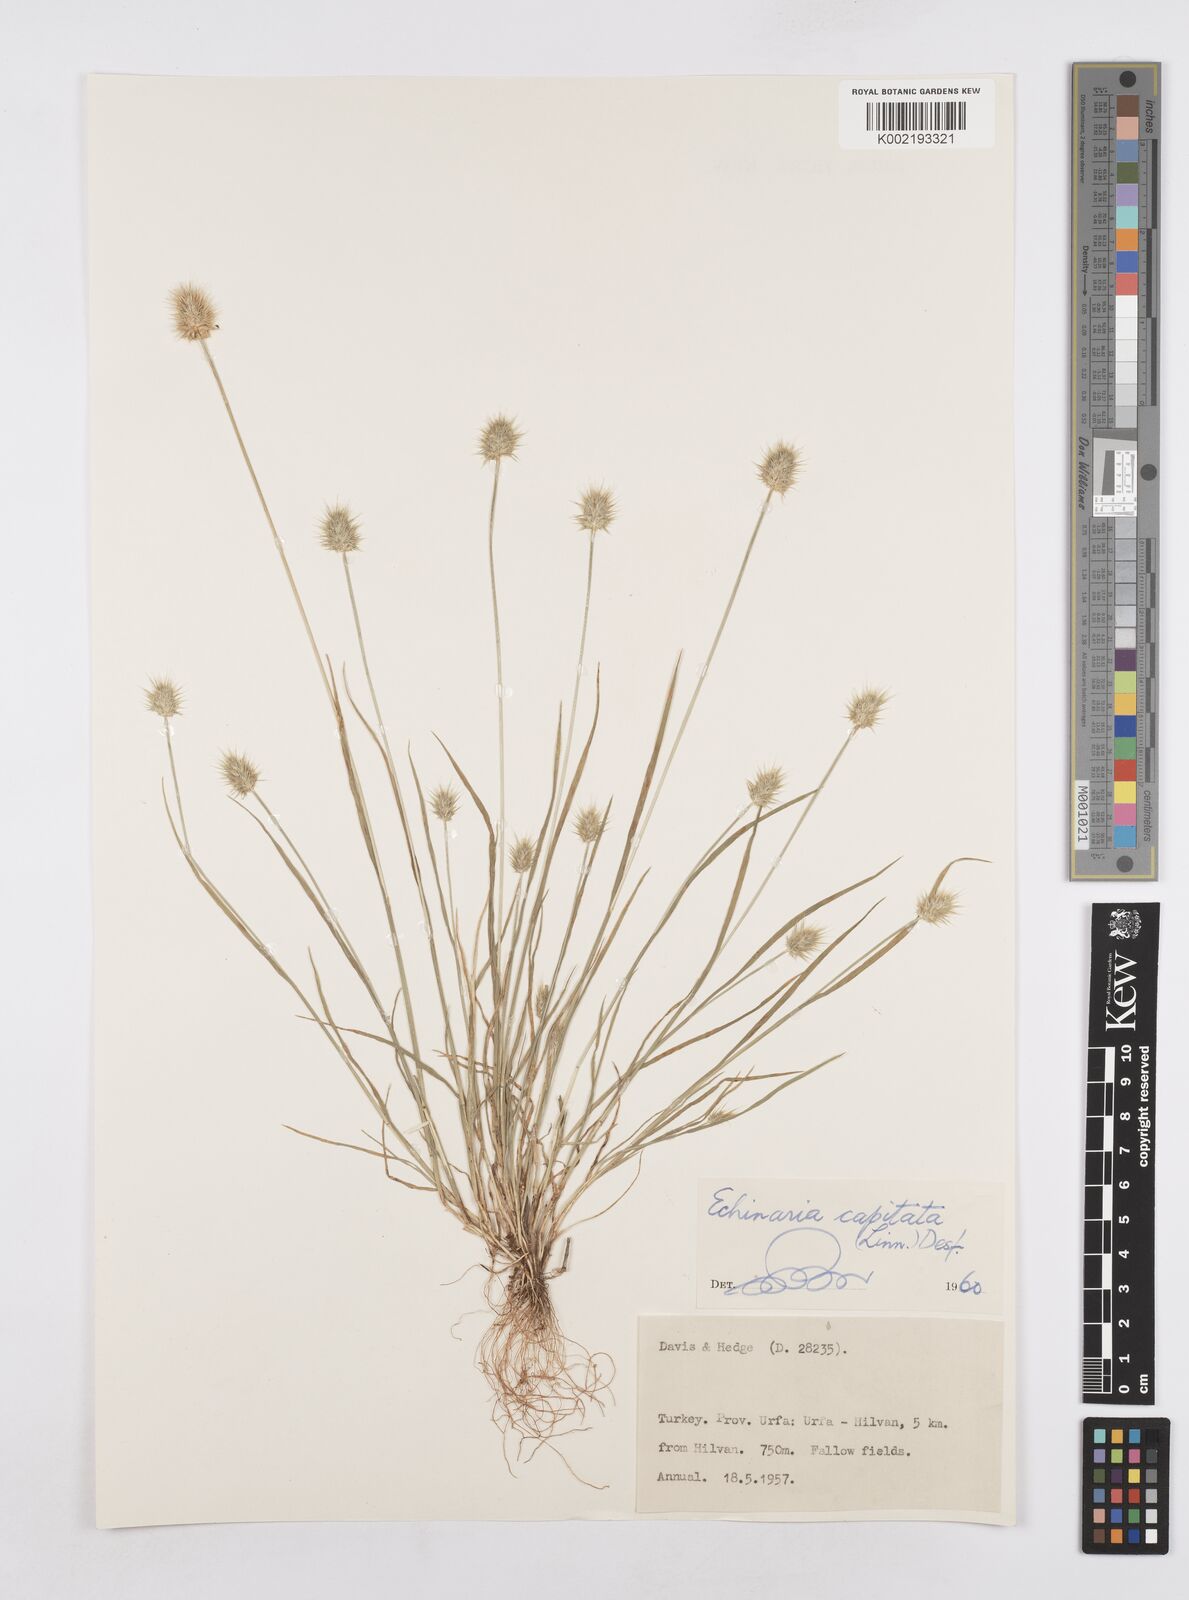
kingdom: Plantae
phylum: Tracheophyta
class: Liliopsida
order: Poales
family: Poaceae
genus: Echinaria
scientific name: Echinaria capitata
